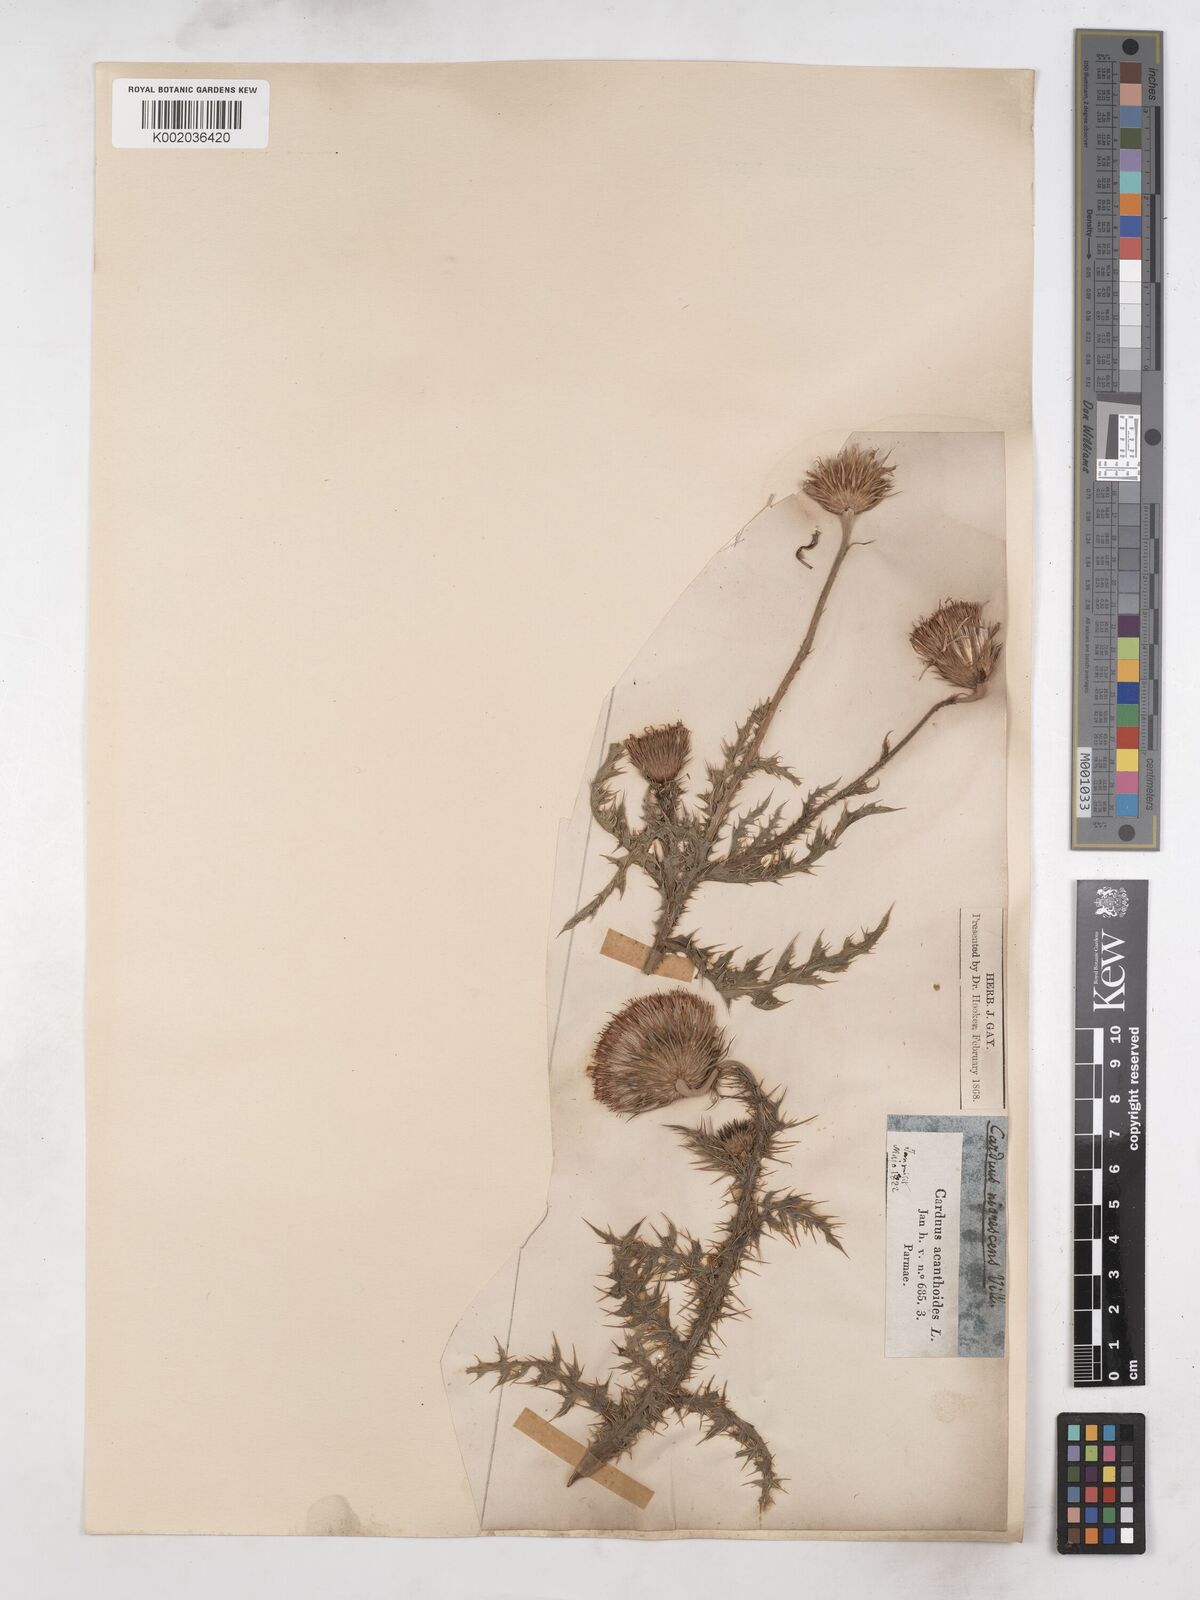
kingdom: Plantae
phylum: Tracheophyta
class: Magnoliopsida
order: Asterales
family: Asteraceae
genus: Carduus
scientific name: Carduus carlinifolius
